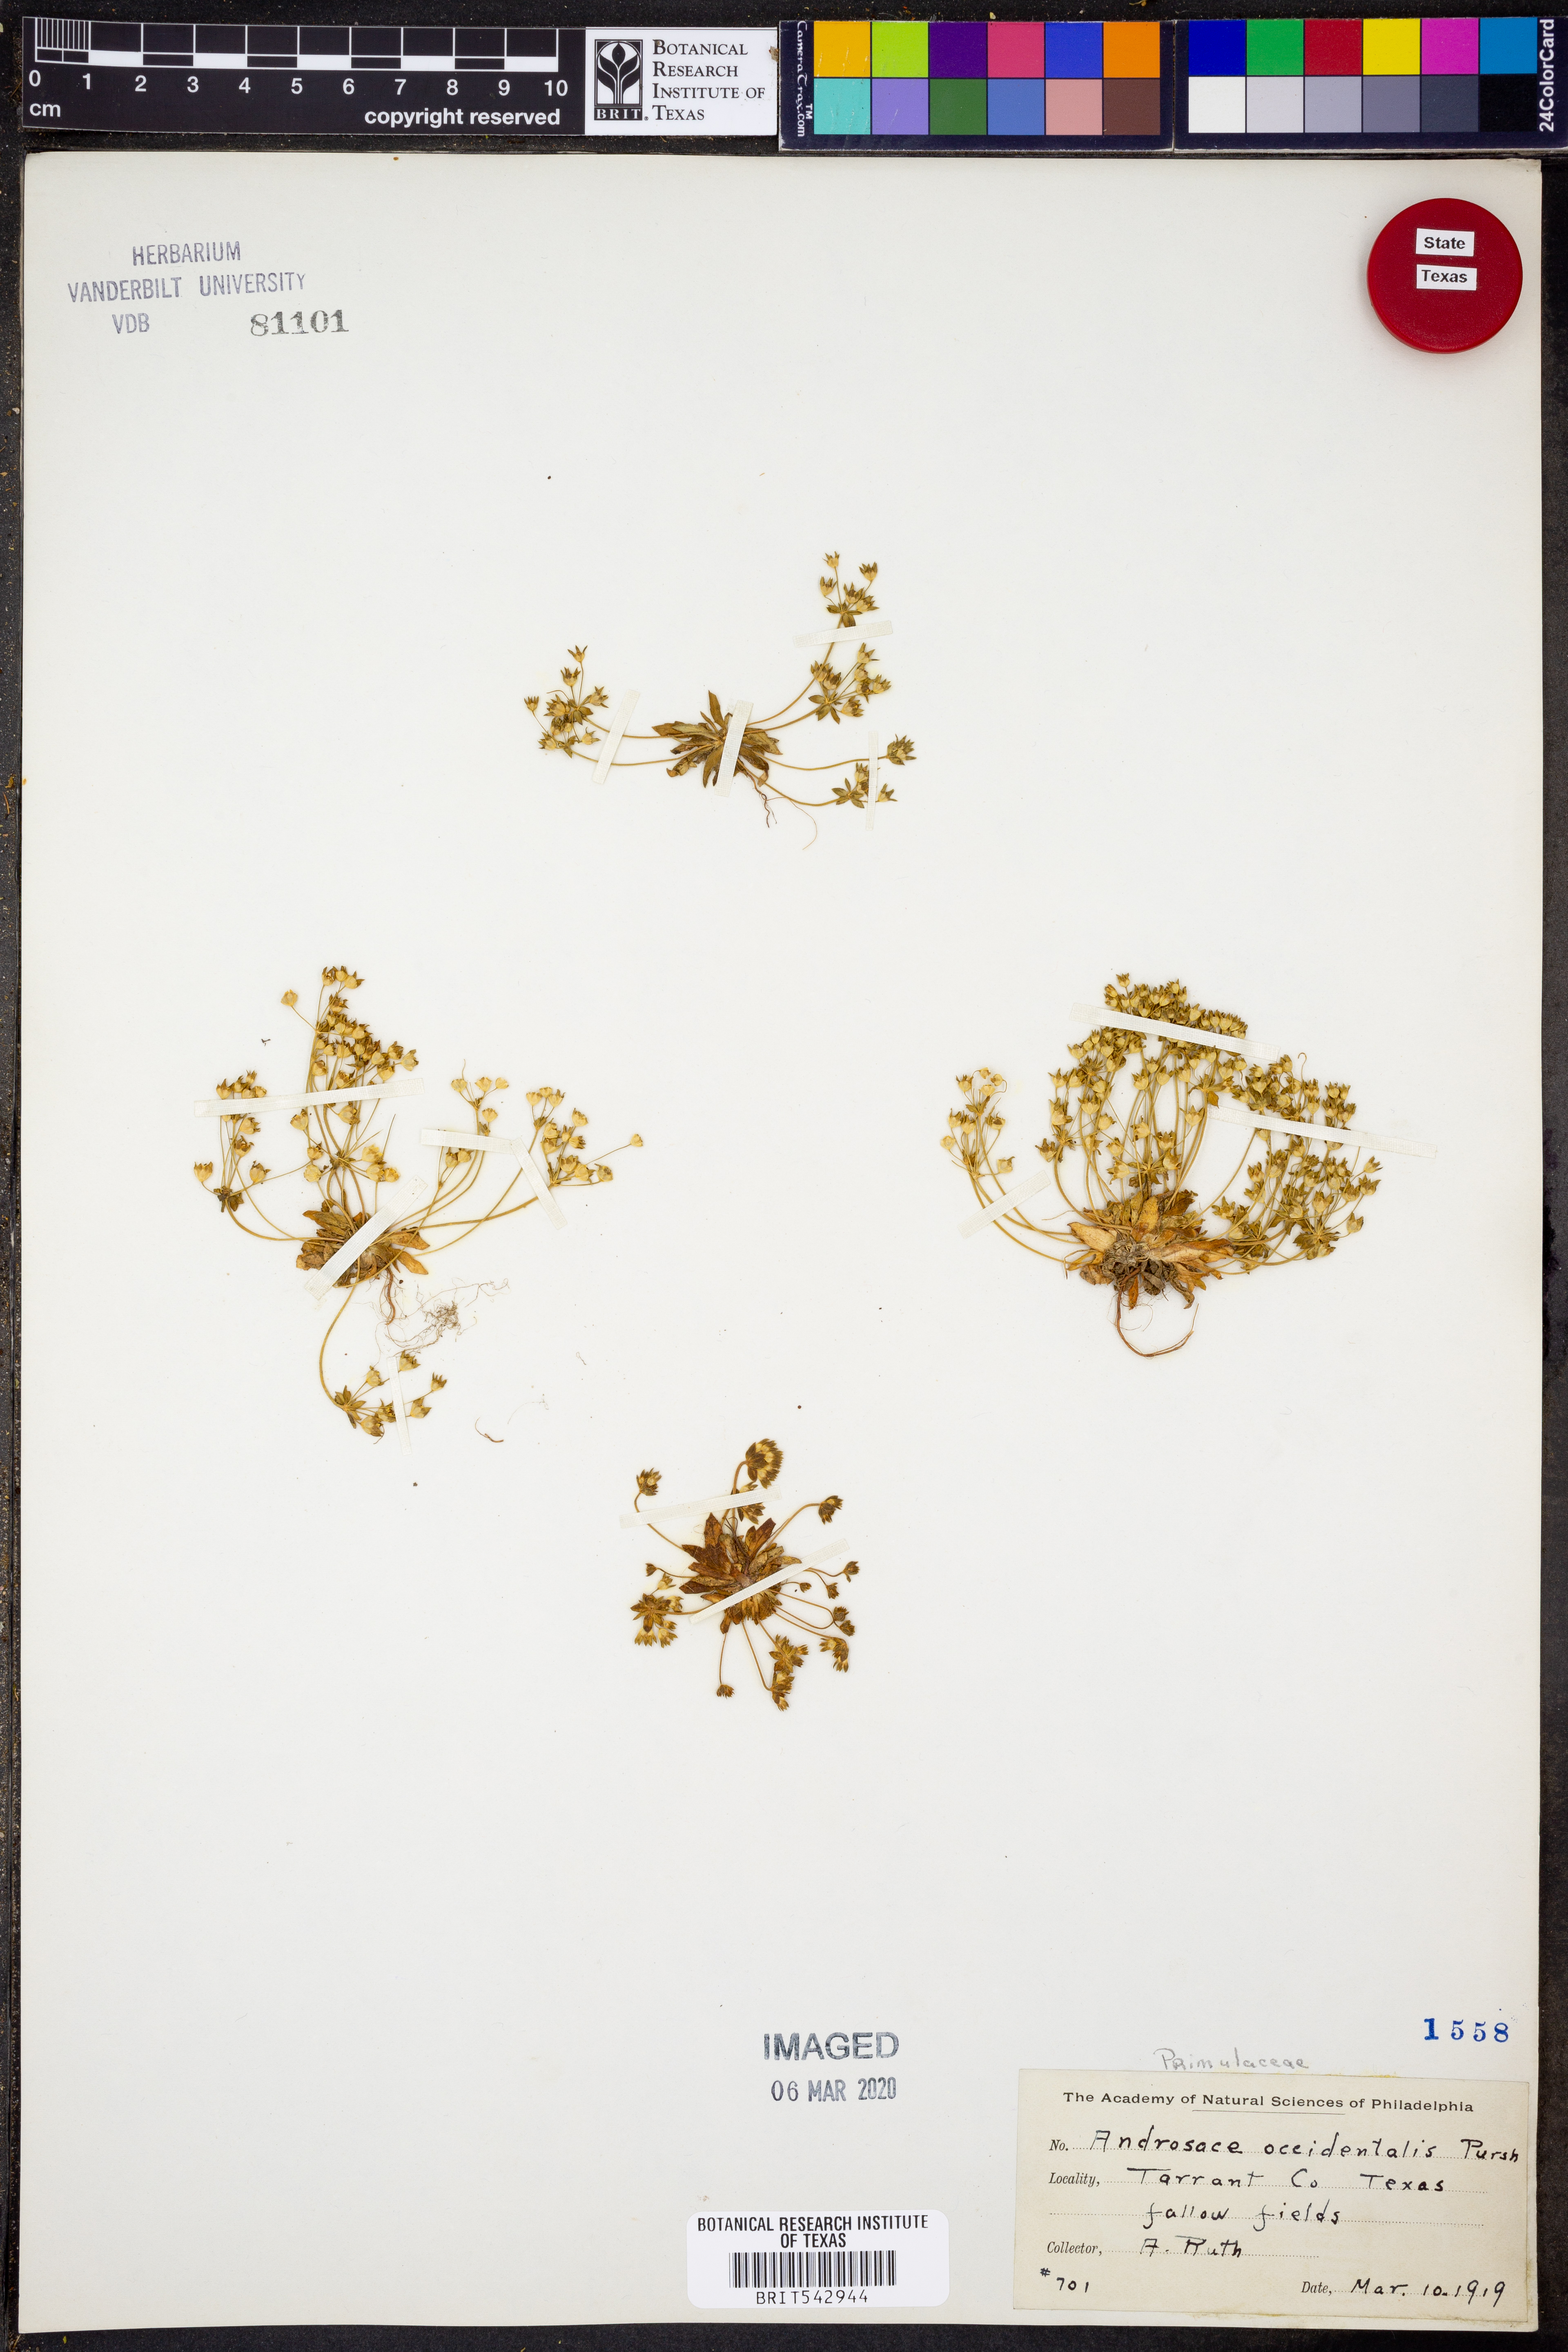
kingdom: Plantae
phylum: Tracheophyta
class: Magnoliopsida
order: Ericales
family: Primulaceae
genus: Androsace
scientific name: Androsace occidentalis
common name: West rock-jasmine
